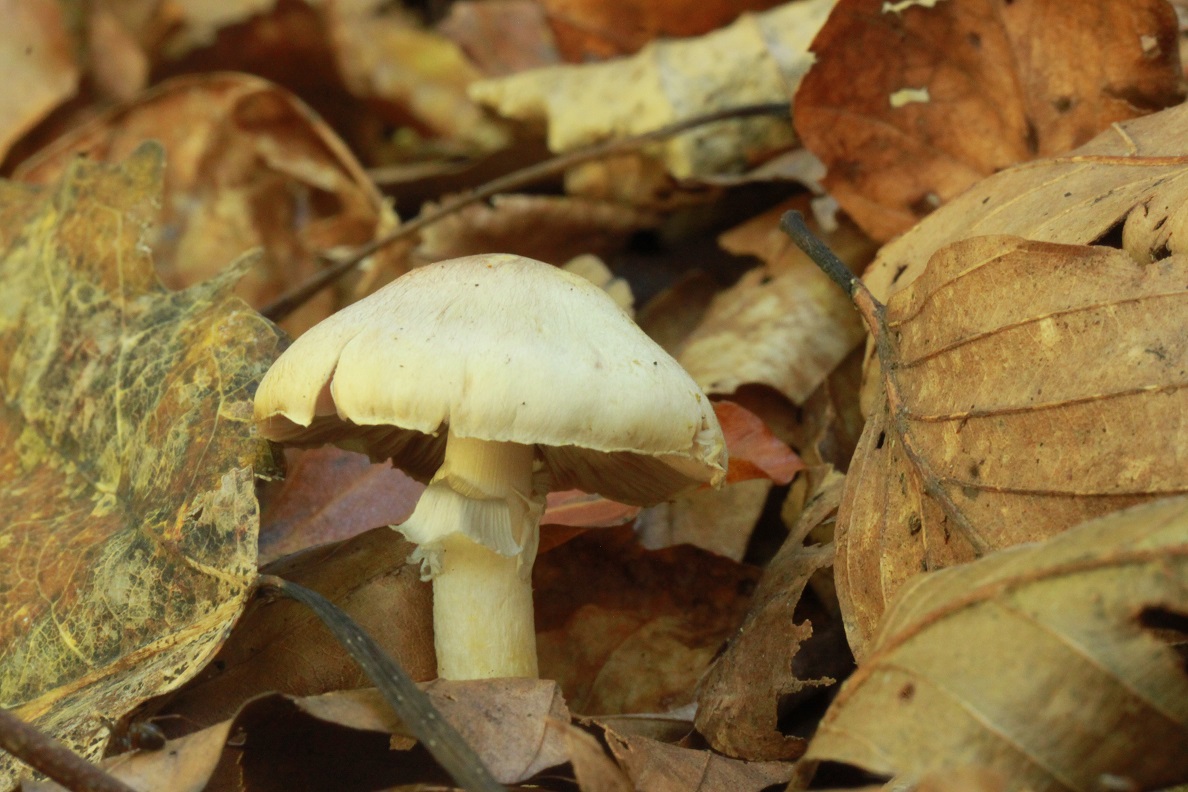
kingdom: Fungi
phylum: Basidiomycota
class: Agaricomycetes
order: Agaricales
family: Agaricaceae
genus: Agaricus
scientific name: Agaricus dulcidulus
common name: blegrød champignon
